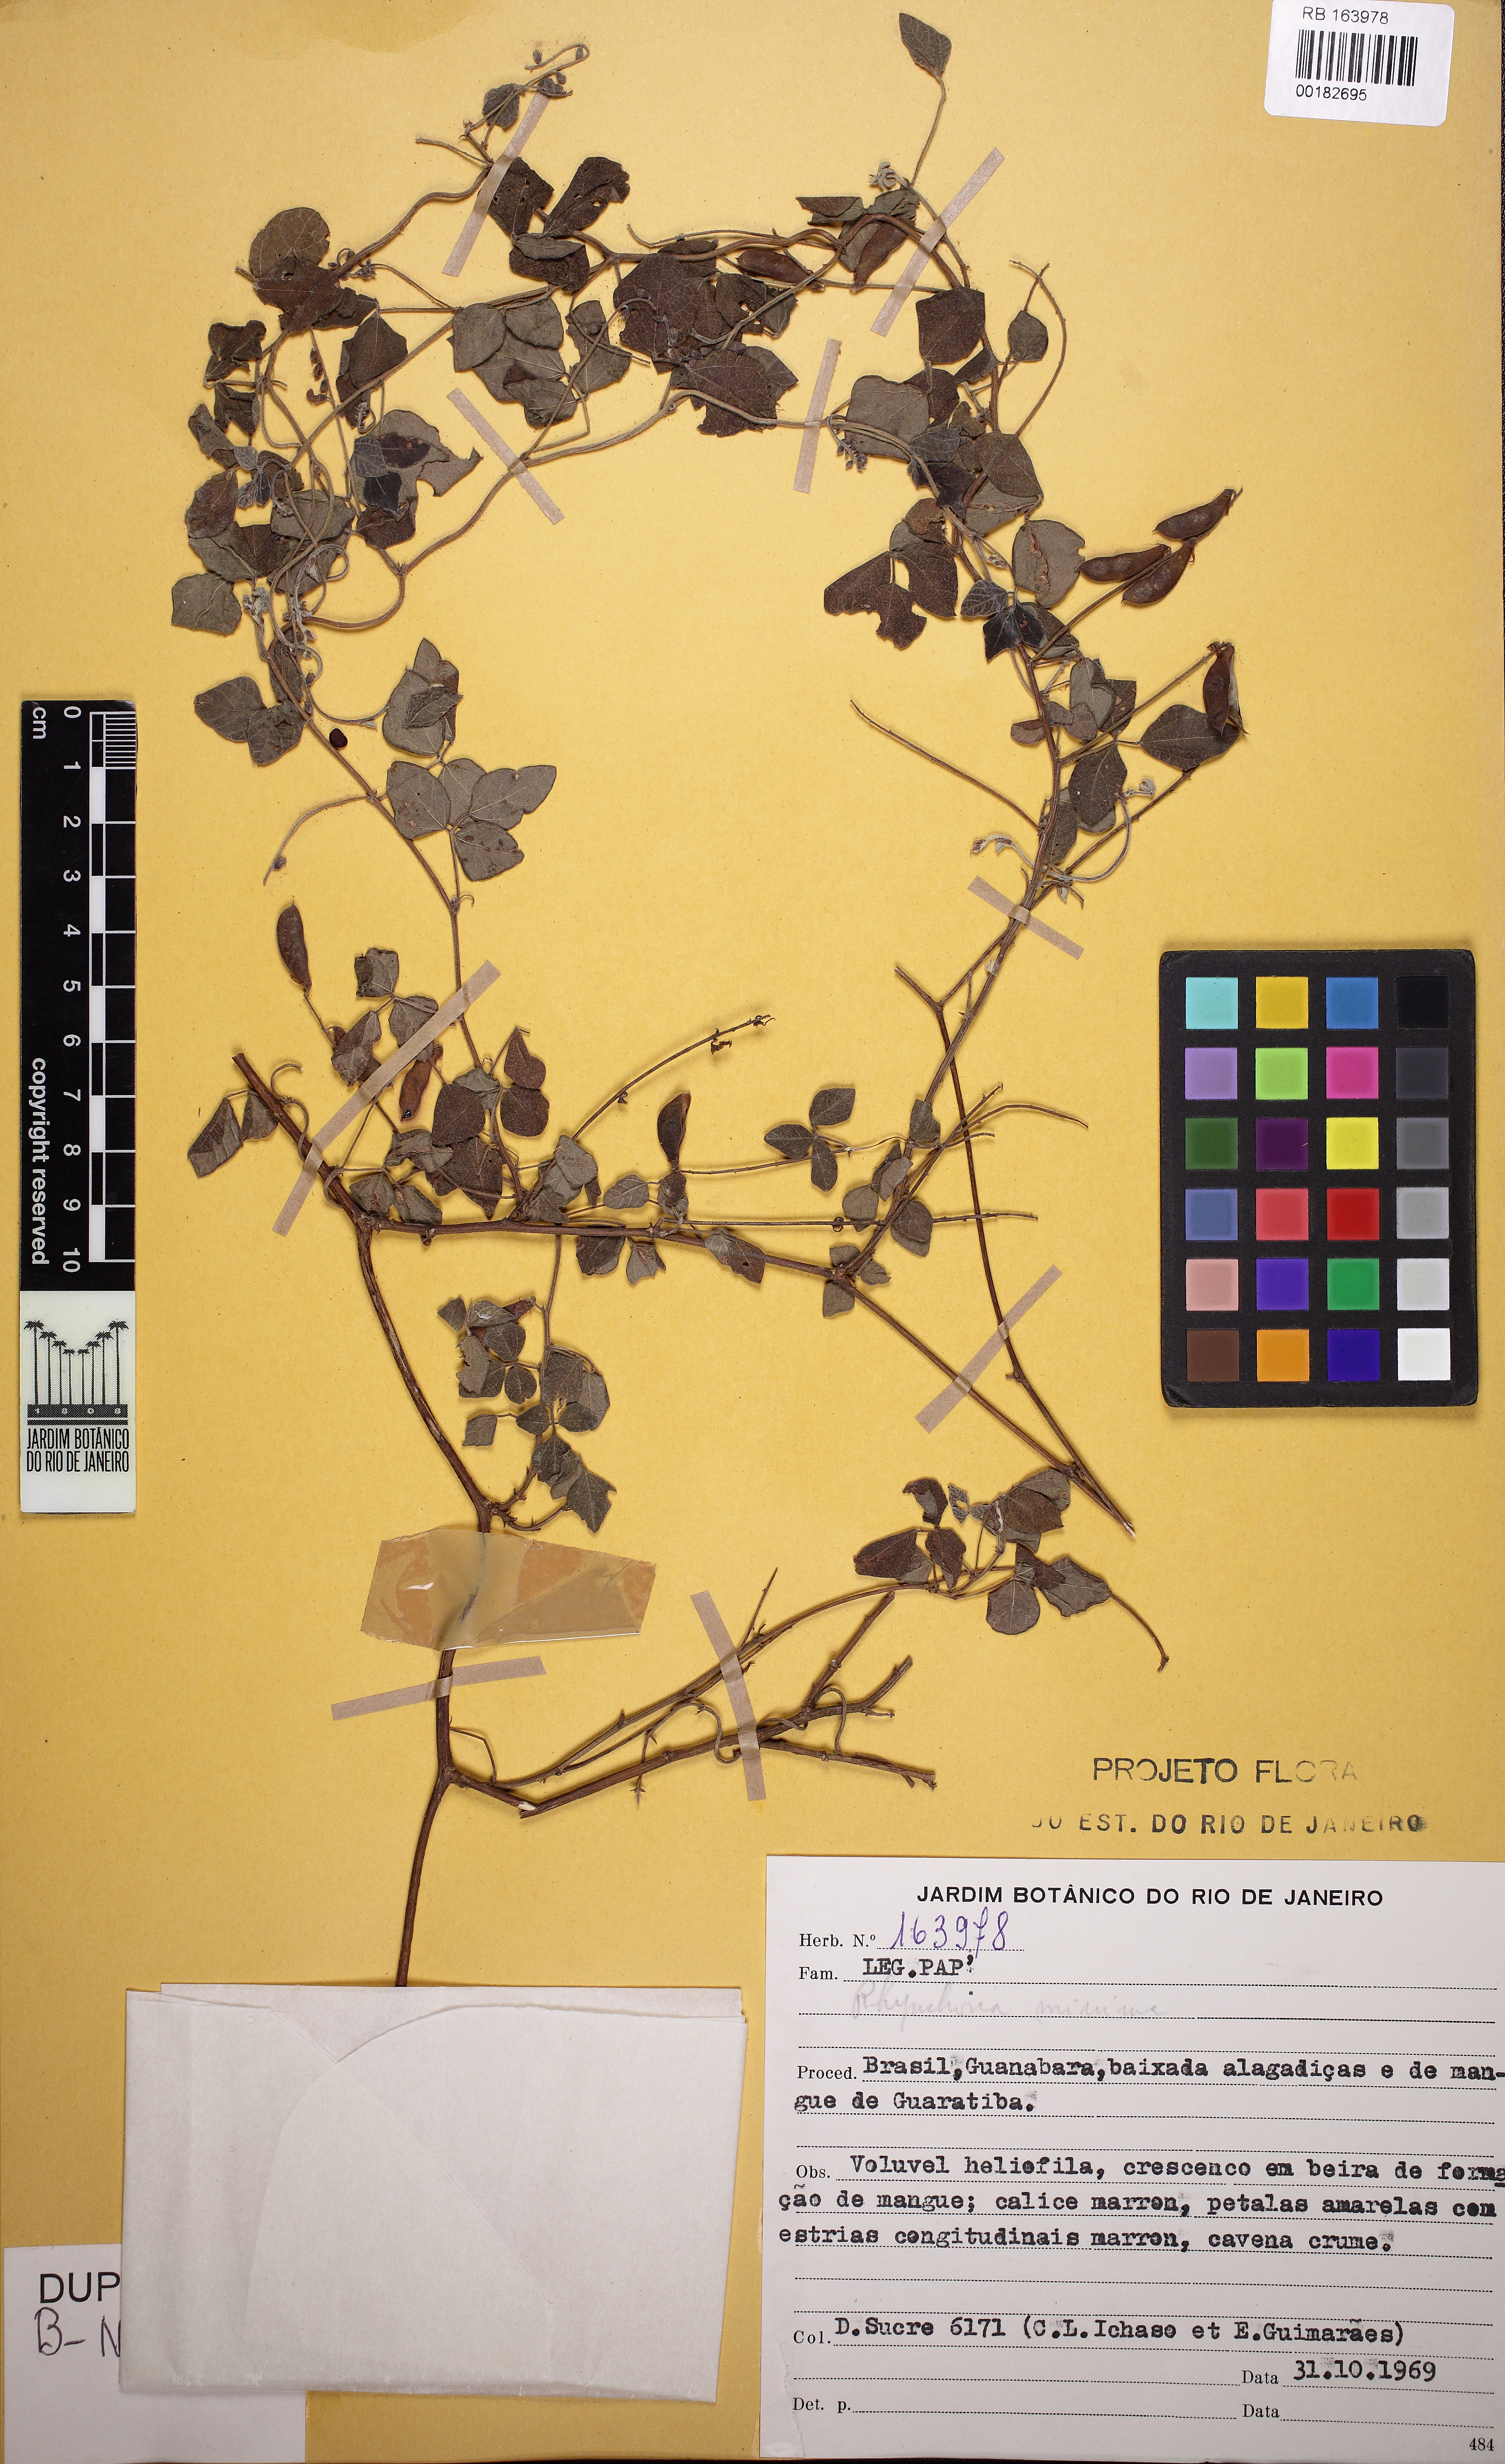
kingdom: Plantae
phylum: Tracheophyta
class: Magnoliopsida
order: Fabales
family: Fabaceae
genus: Rhynchosia
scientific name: Rhynchosia minima
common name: Least snoutbean
